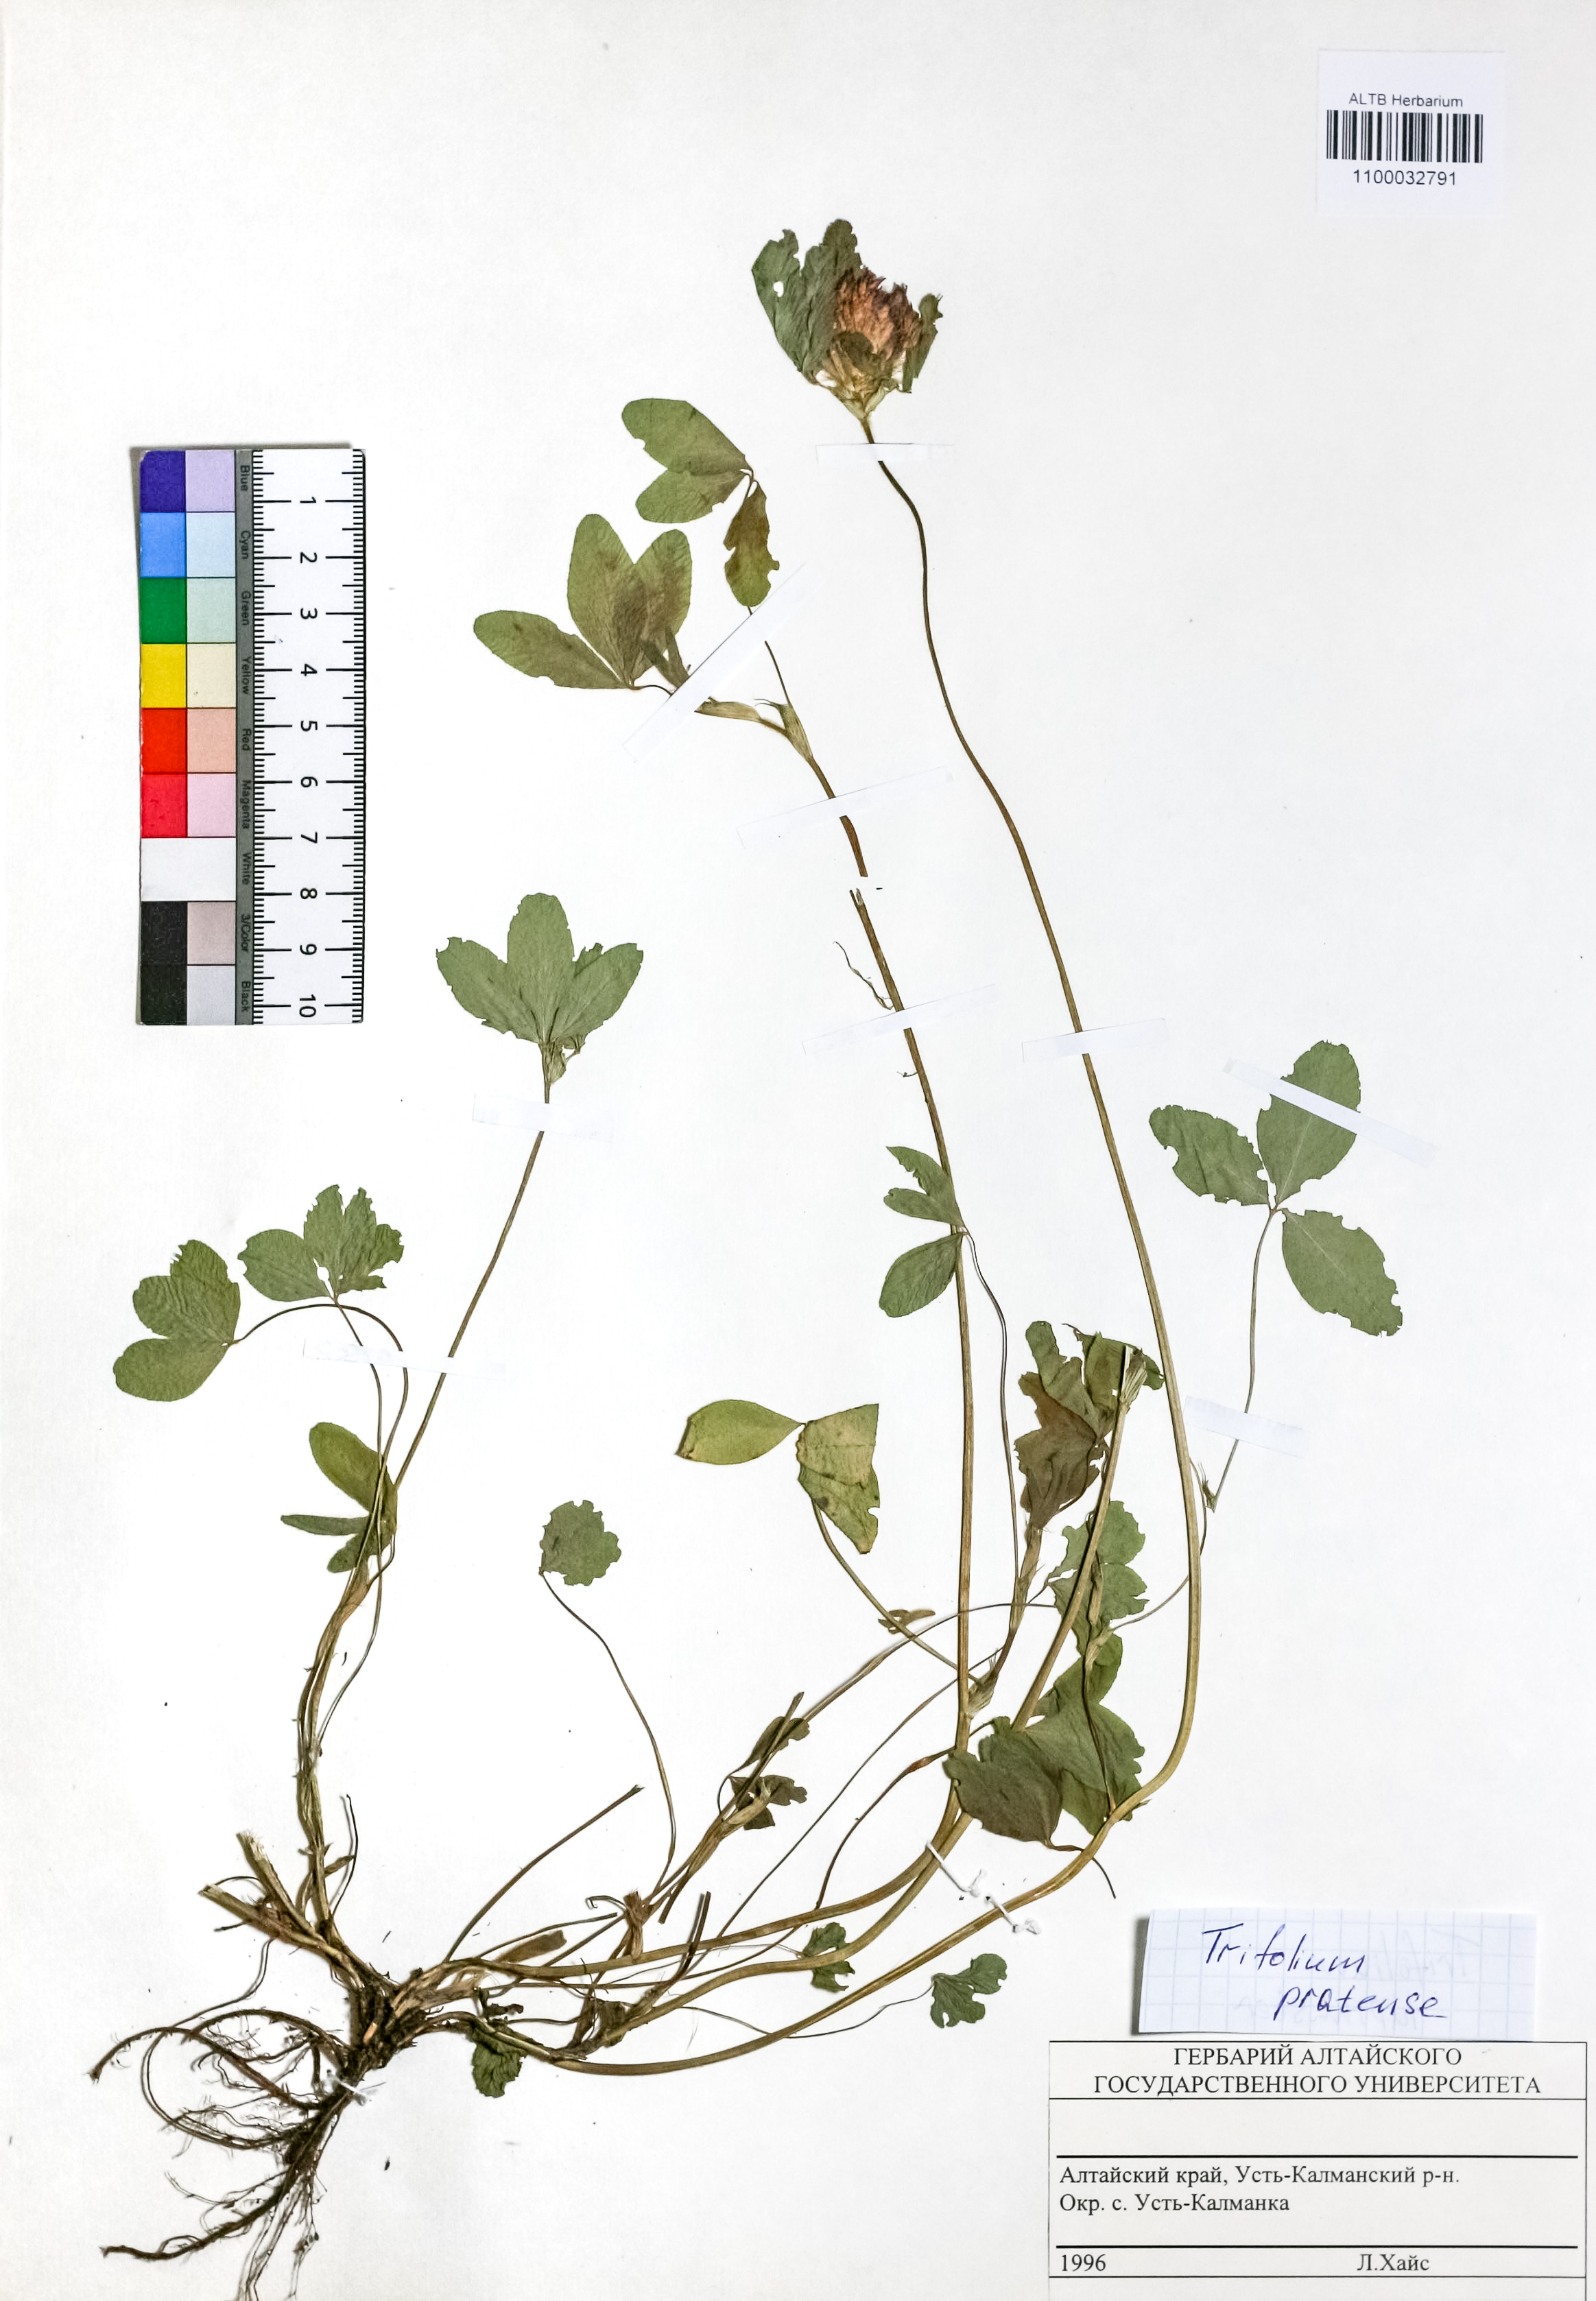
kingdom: Plantae
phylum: Tracheophyta
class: Magnoliopsida
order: Fabales
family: Fabaceae
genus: Trifolium
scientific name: Trifolium pratense
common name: Red clover
